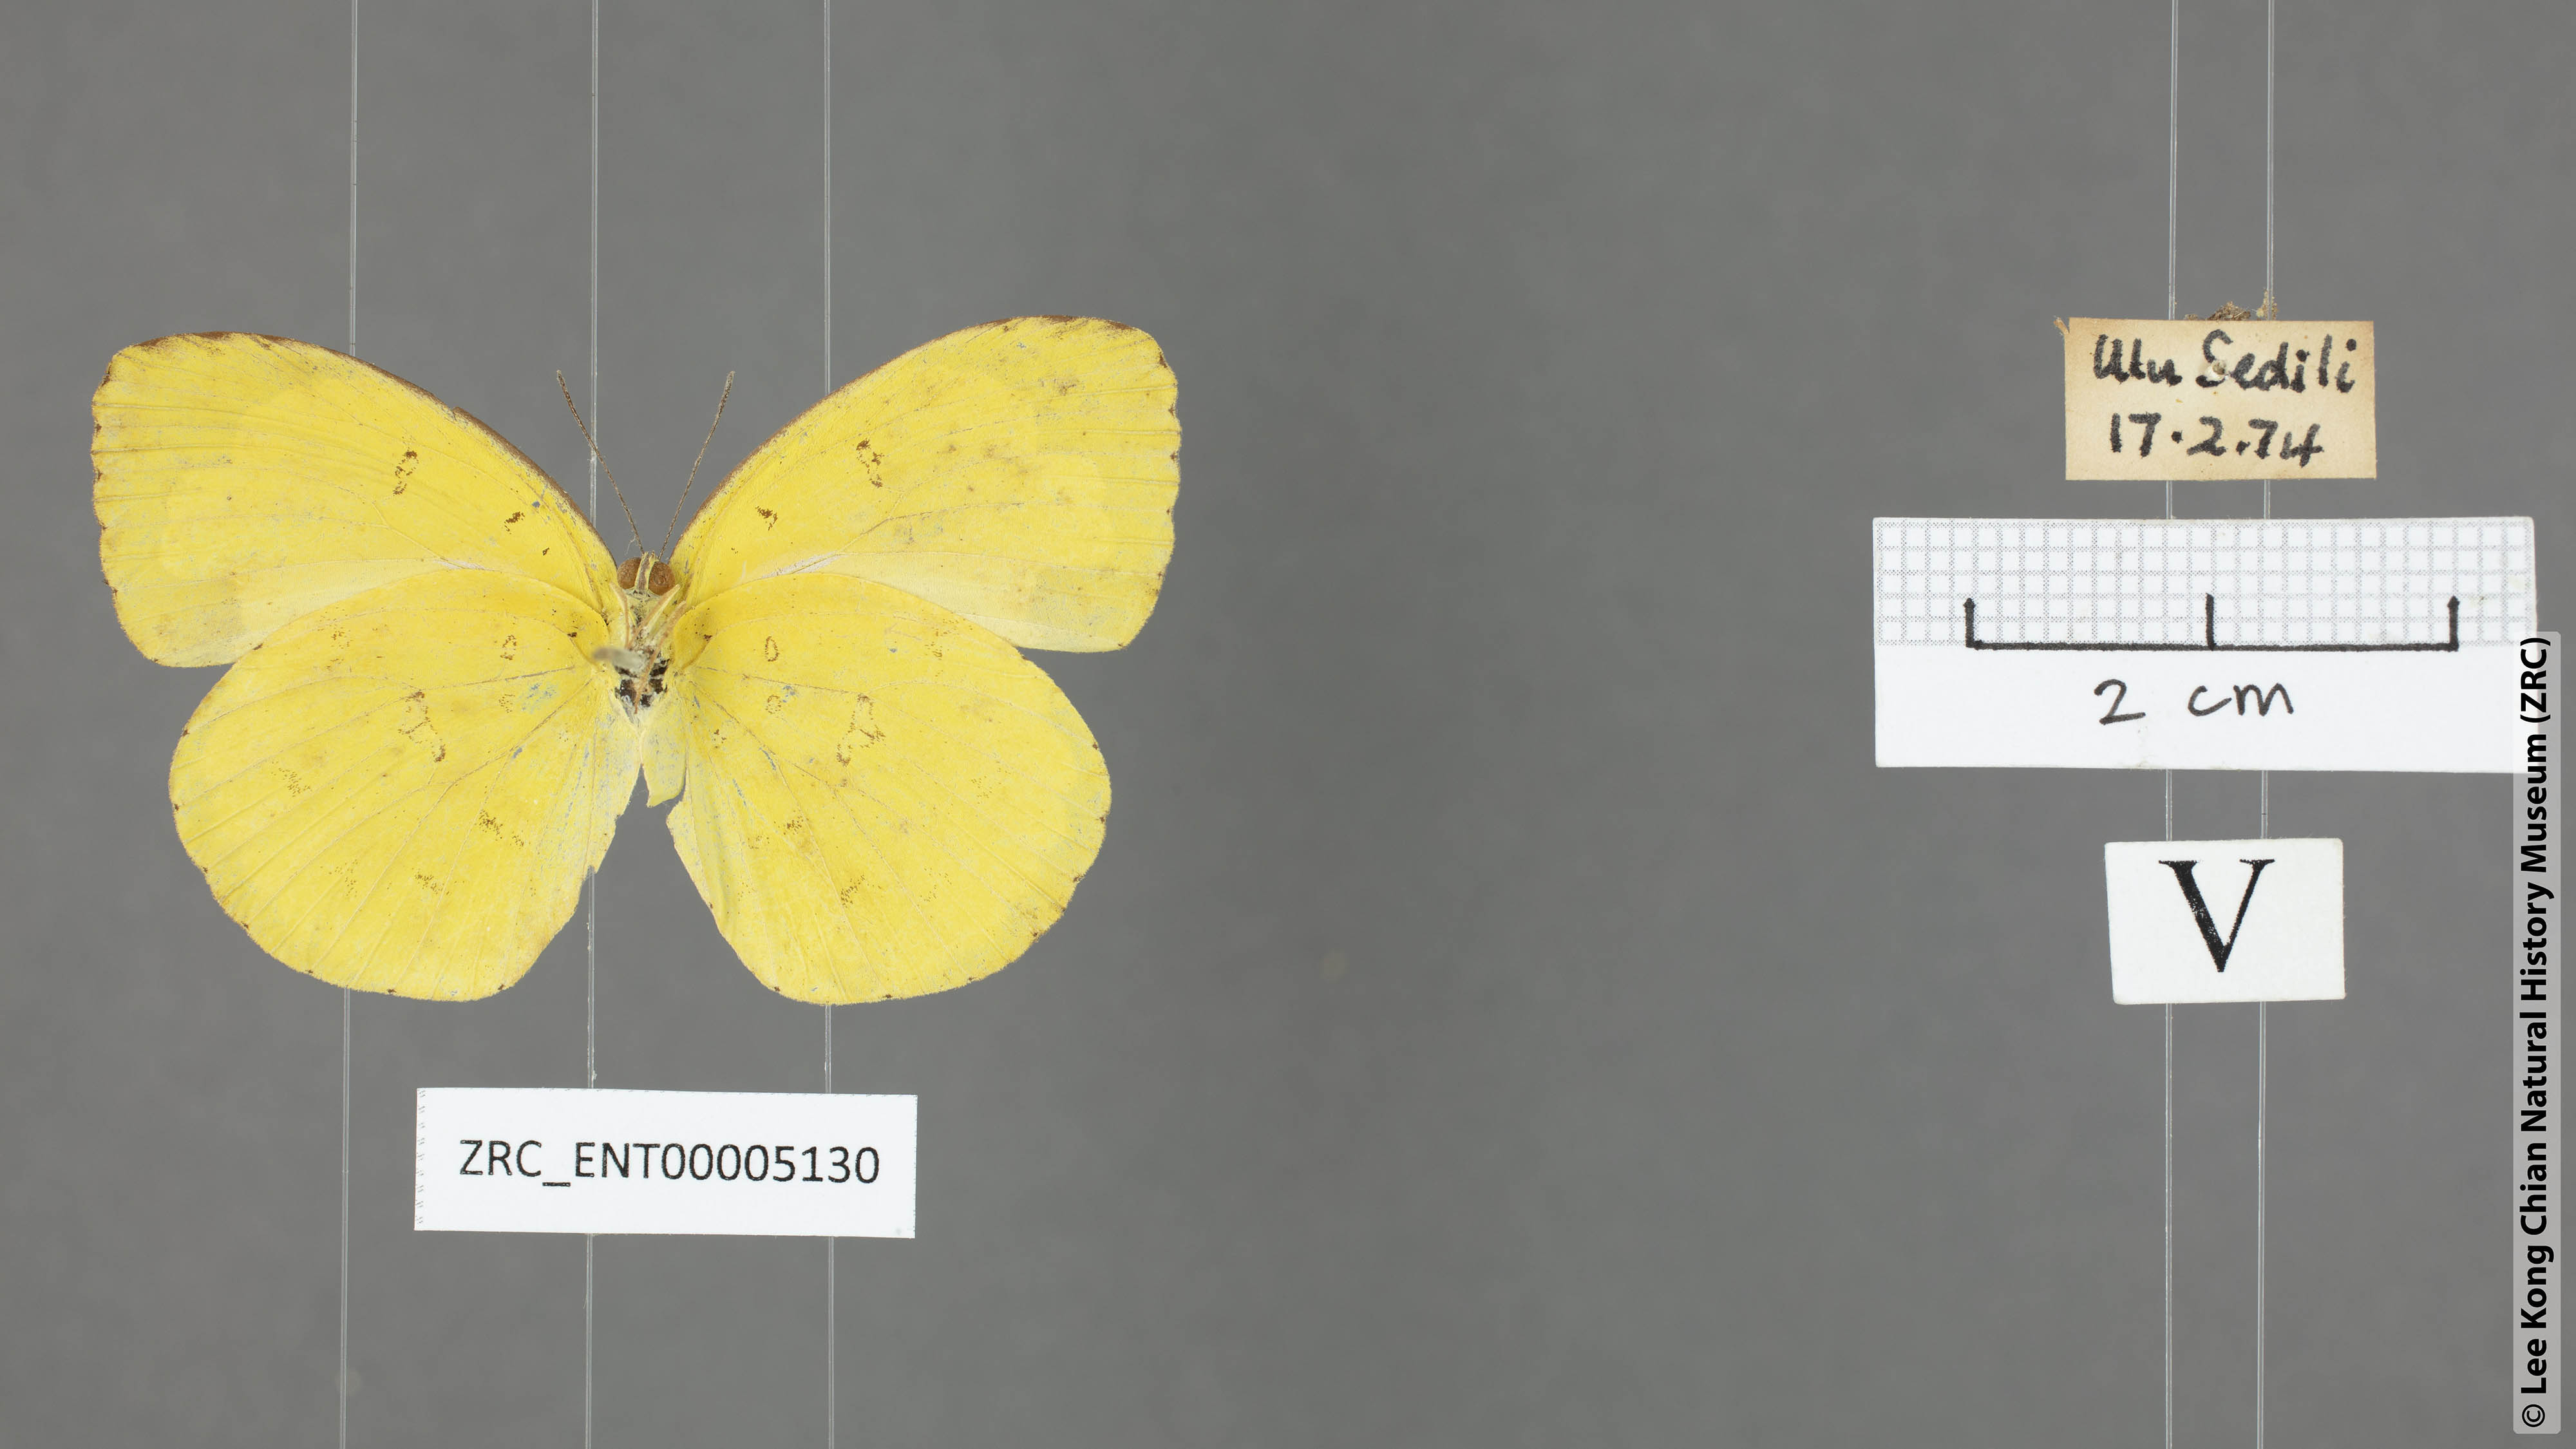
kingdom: Animalia
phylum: Arthropoda
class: Insecta
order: Lepidoptera
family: Pieridae
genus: Eurema
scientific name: Eurema hecabe
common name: Pale grass yellow
